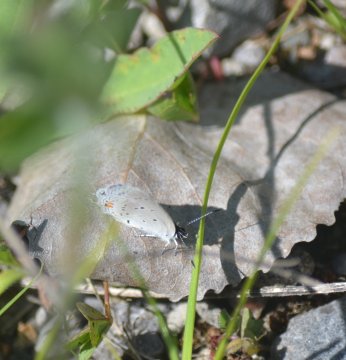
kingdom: Animalia
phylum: Arthropoda
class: Insecta
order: Lepidoptera
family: Lycaenidae
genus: Elkalyce
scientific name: Elkalyce comyntas
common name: Eastern Tailed-Blue
